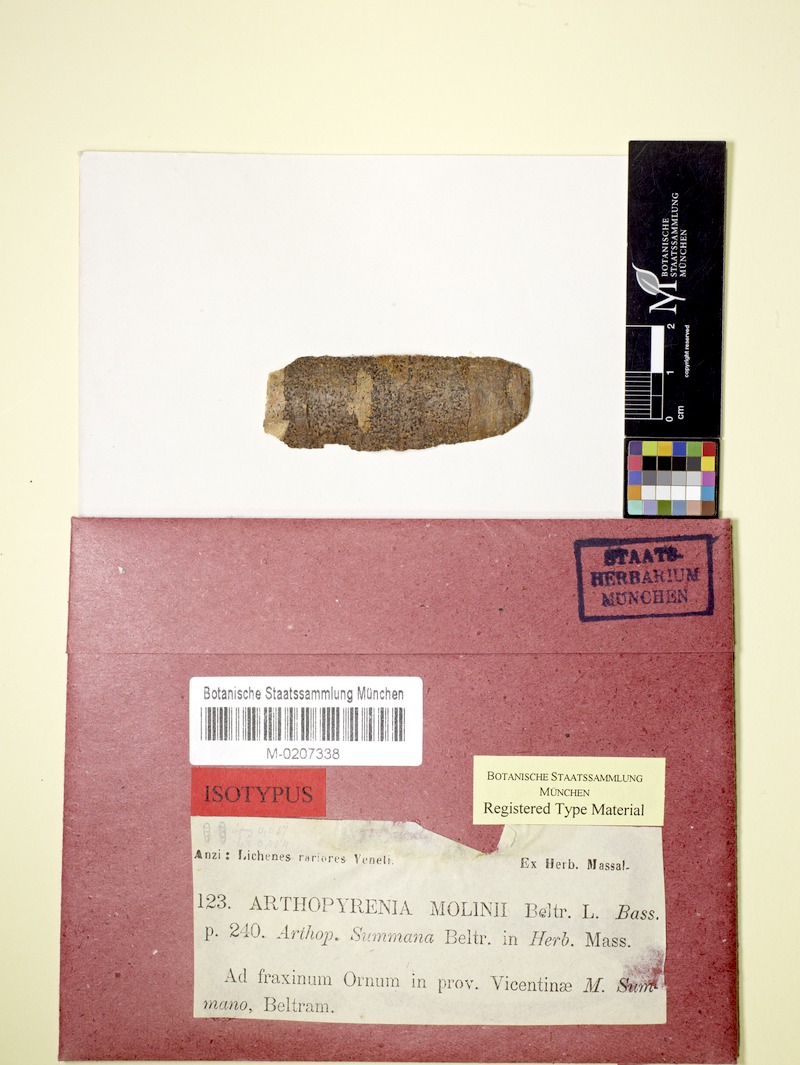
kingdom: Fungi
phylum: Ascomycota
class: Dothideomycetes
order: Pleosporales
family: Arthopyreniaceae
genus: Arthopyrenia
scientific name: Arthopyrenia molinii
